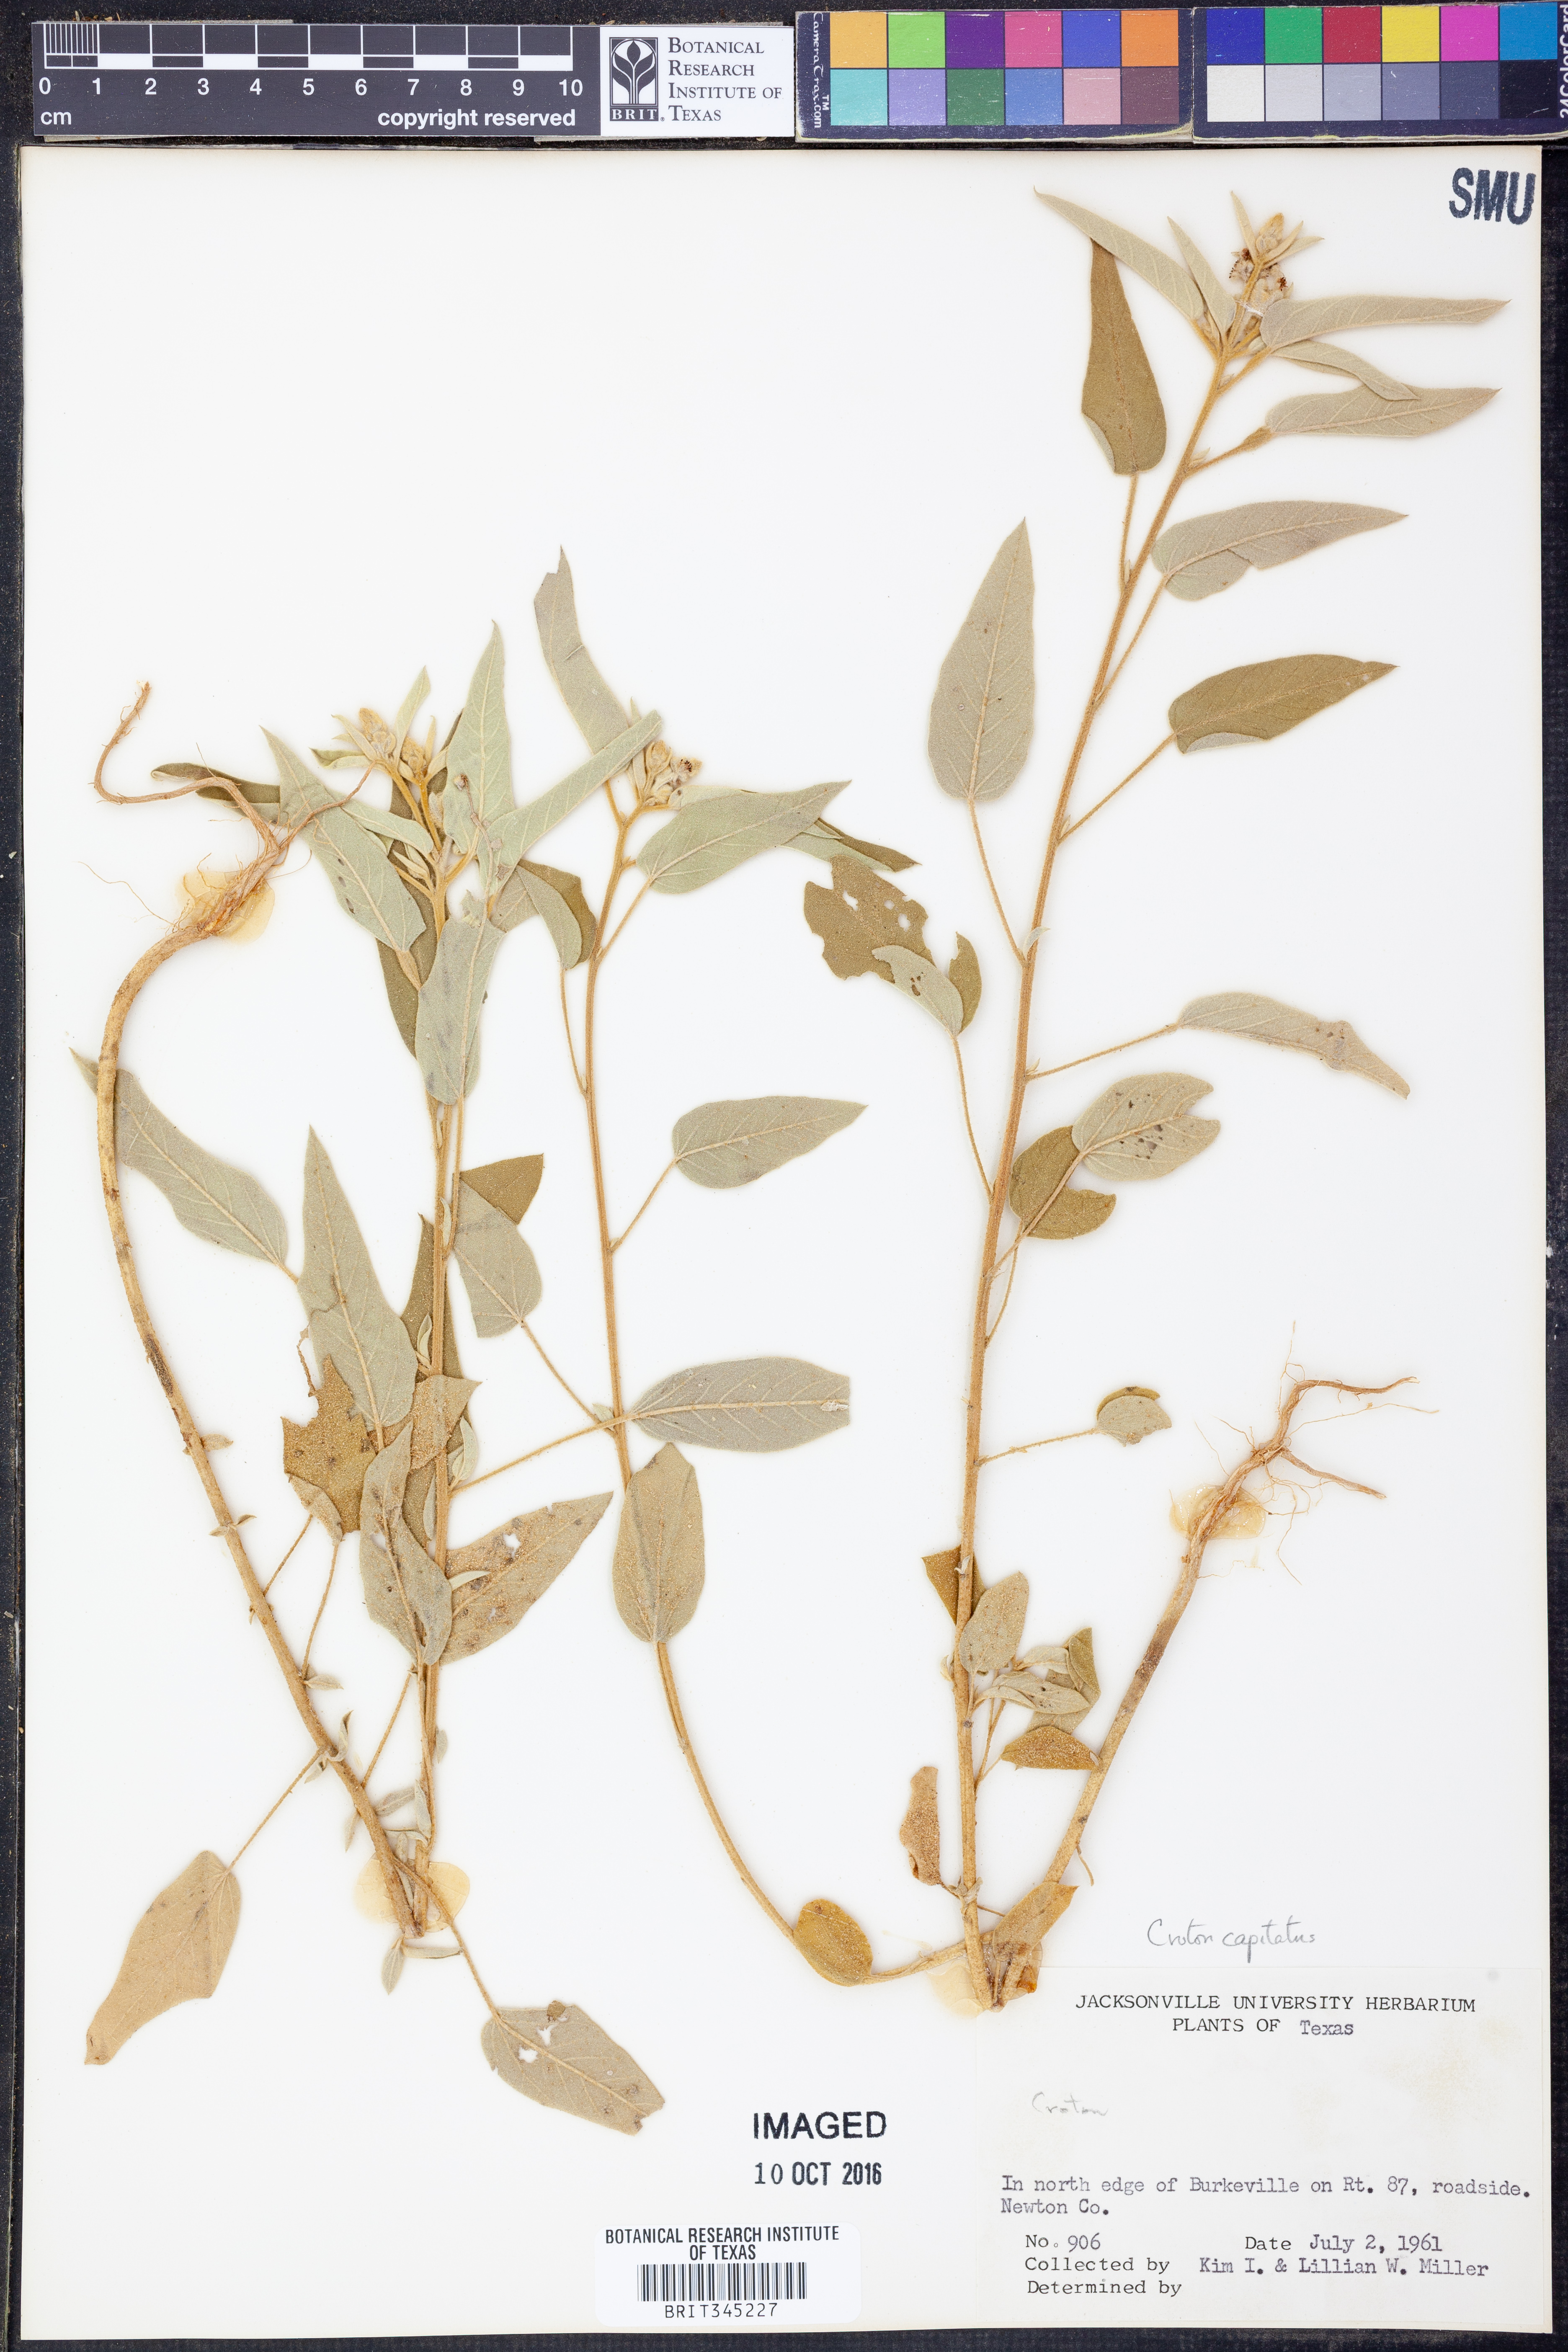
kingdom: Plantae
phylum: Tracheophyta
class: Magnoliopsida
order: Malpighiales
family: Euphorbiaceae
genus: Croton
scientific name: Croton capitatus
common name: Woolly croton
